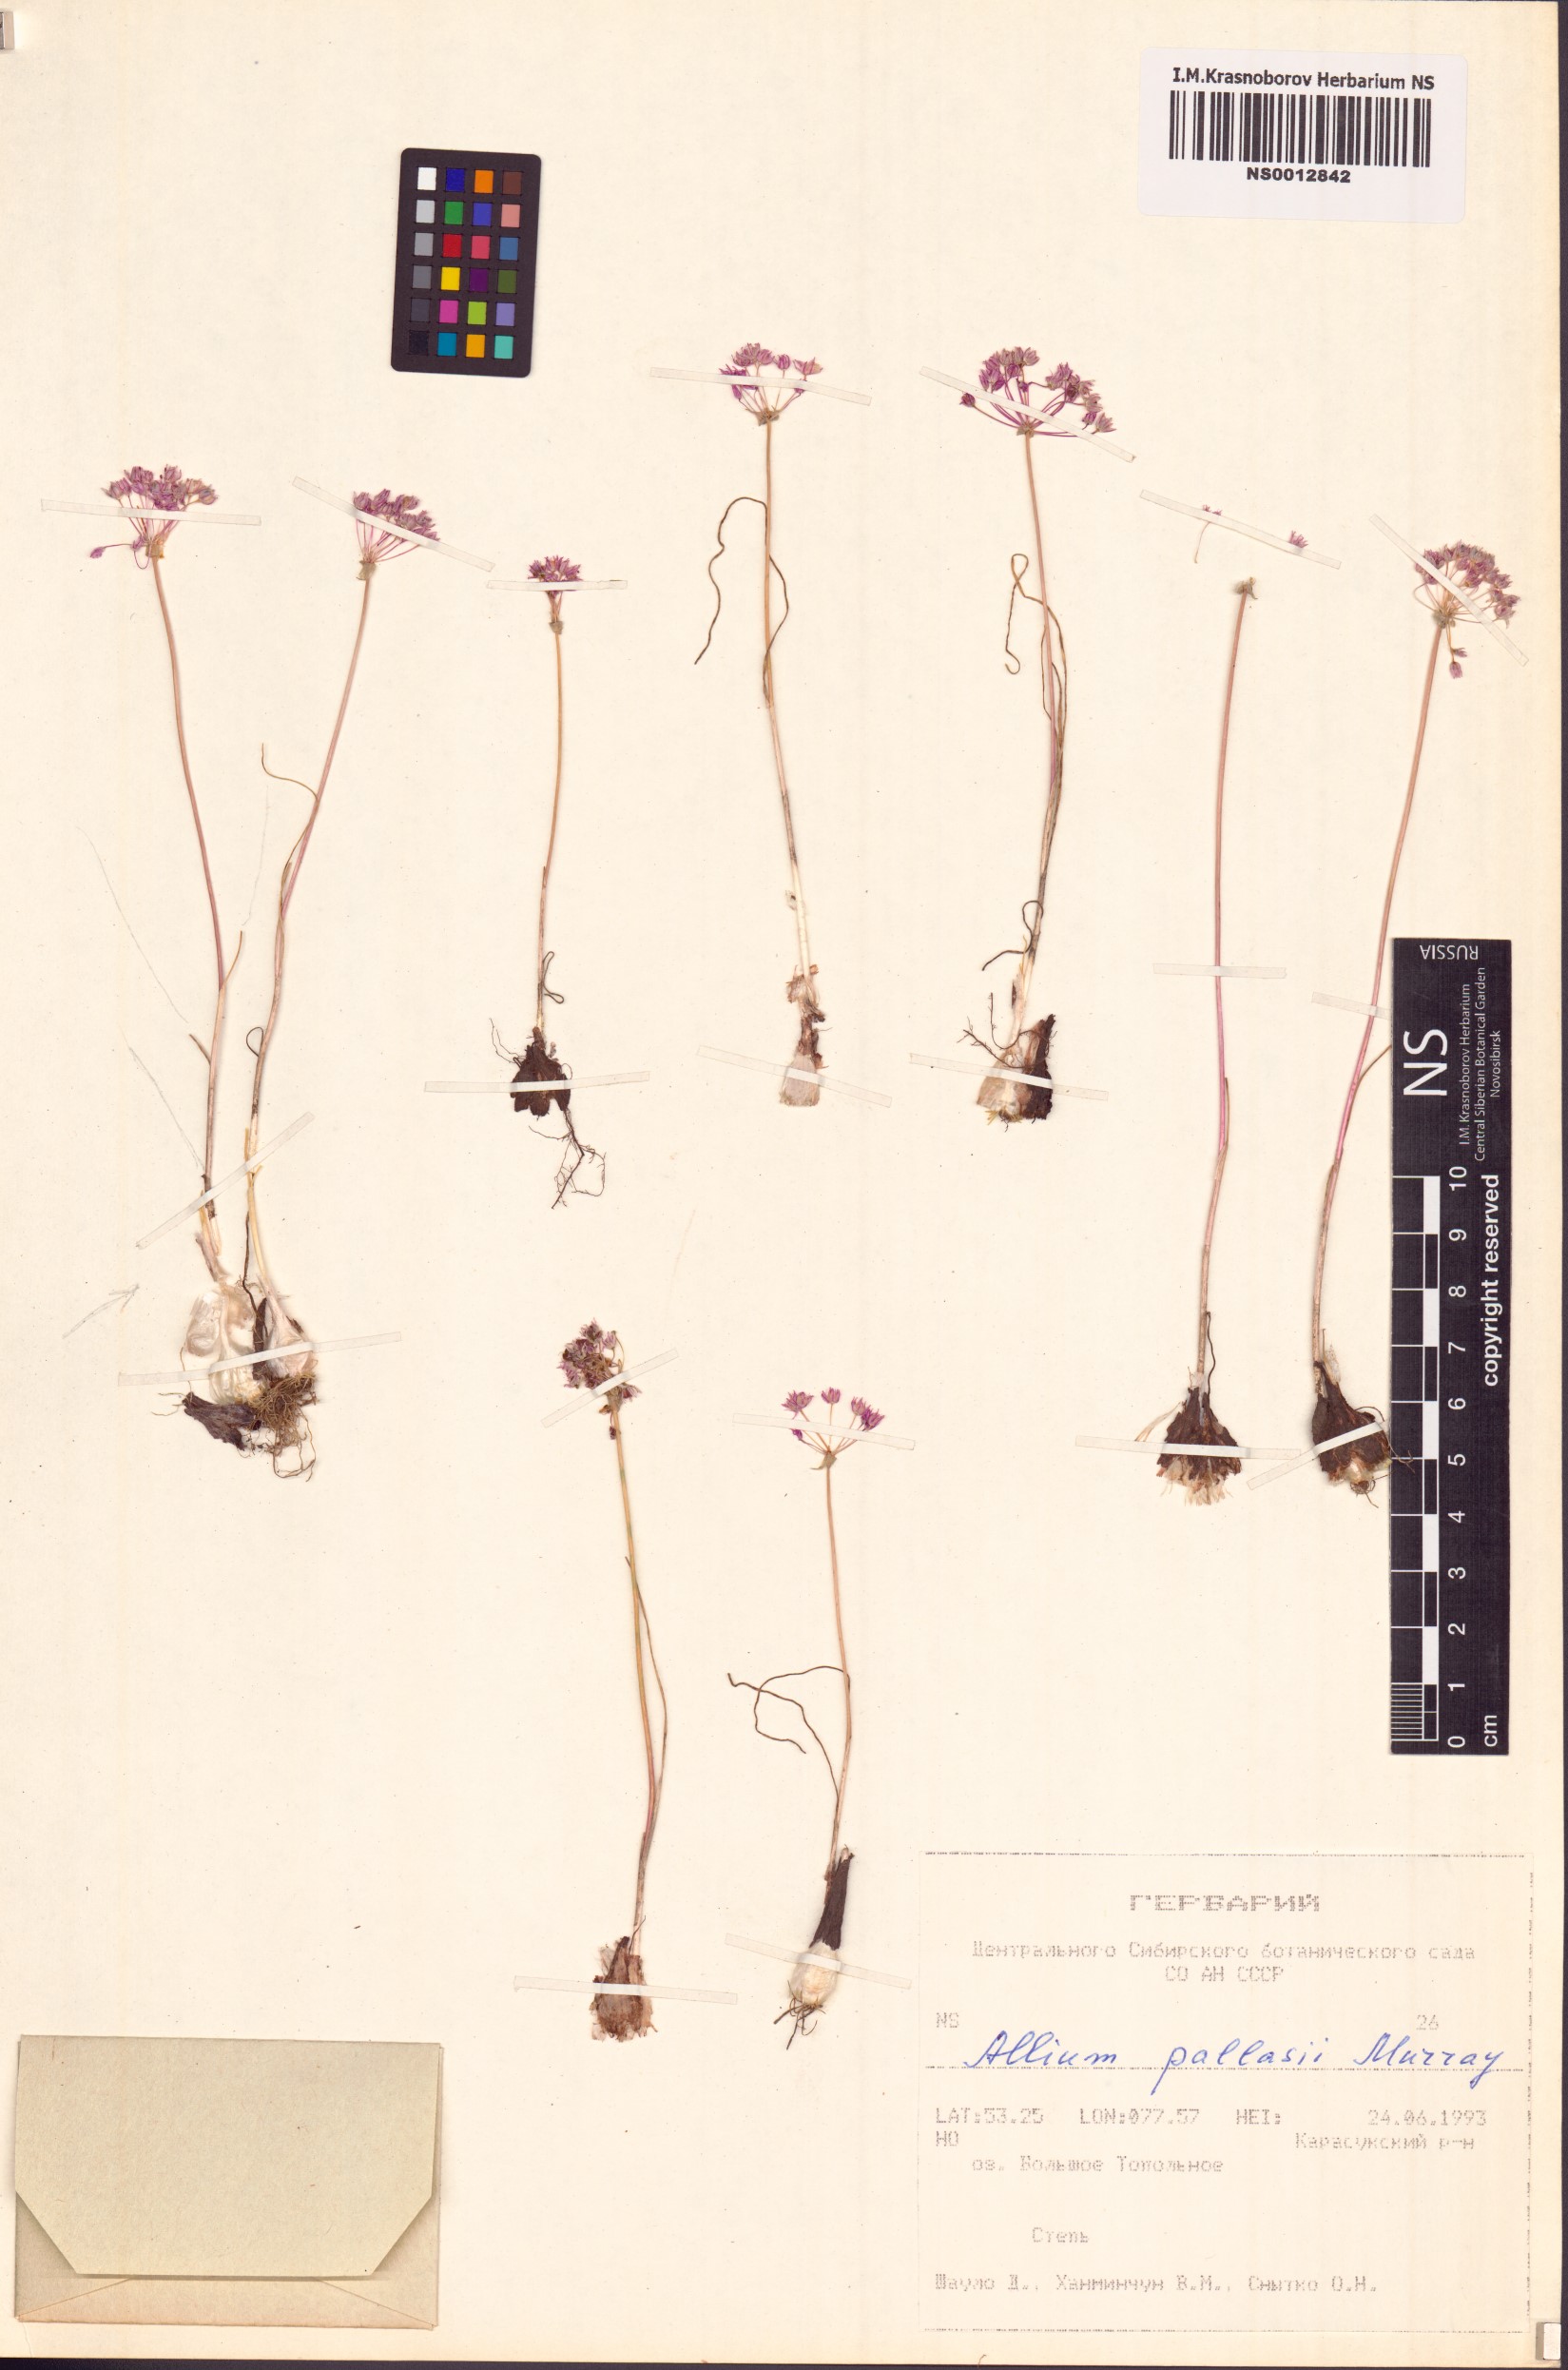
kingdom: Plantae
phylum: Tracheophyta
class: Liliopsida
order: Asparagales
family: Amaryllidaceae
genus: Allium
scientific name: Allium pallasii
